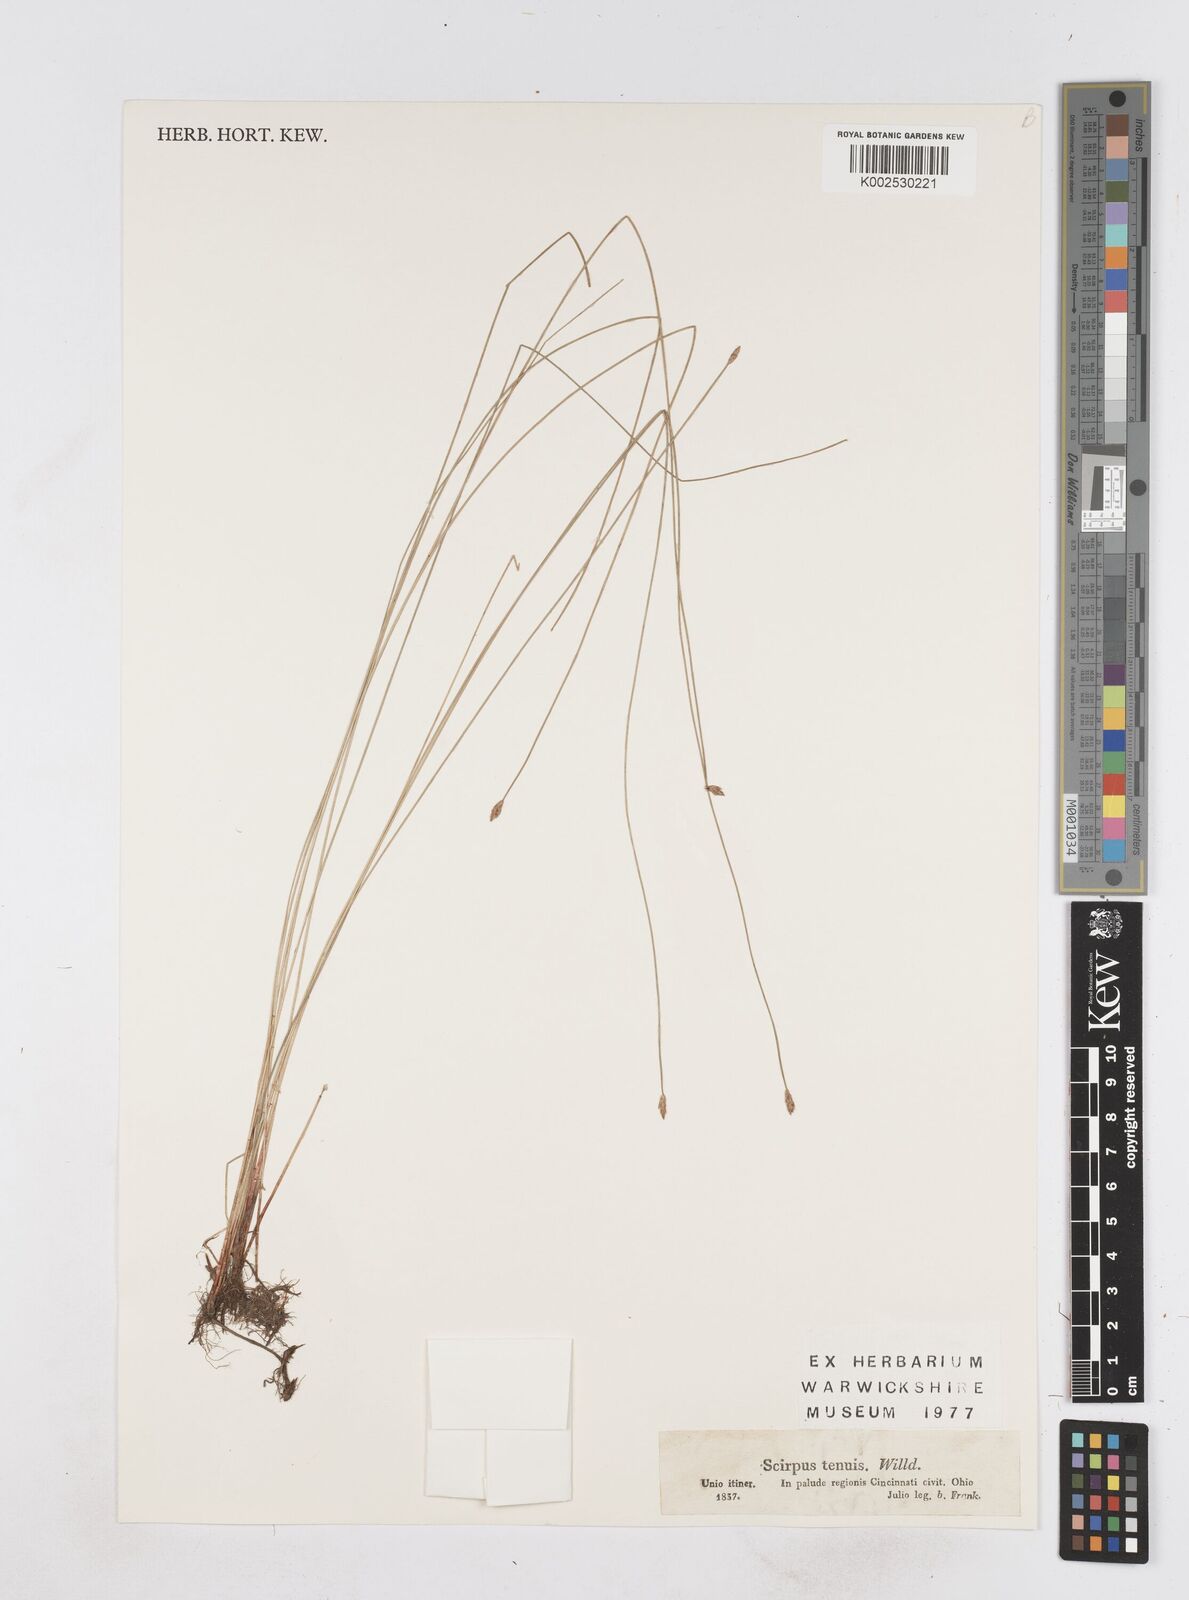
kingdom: Plantae
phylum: Tracheophyta
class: Liliopsida
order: Poales
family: Cyperaceae
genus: Eleocharis
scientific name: Eleocharis tenuis
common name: Dog's hair
